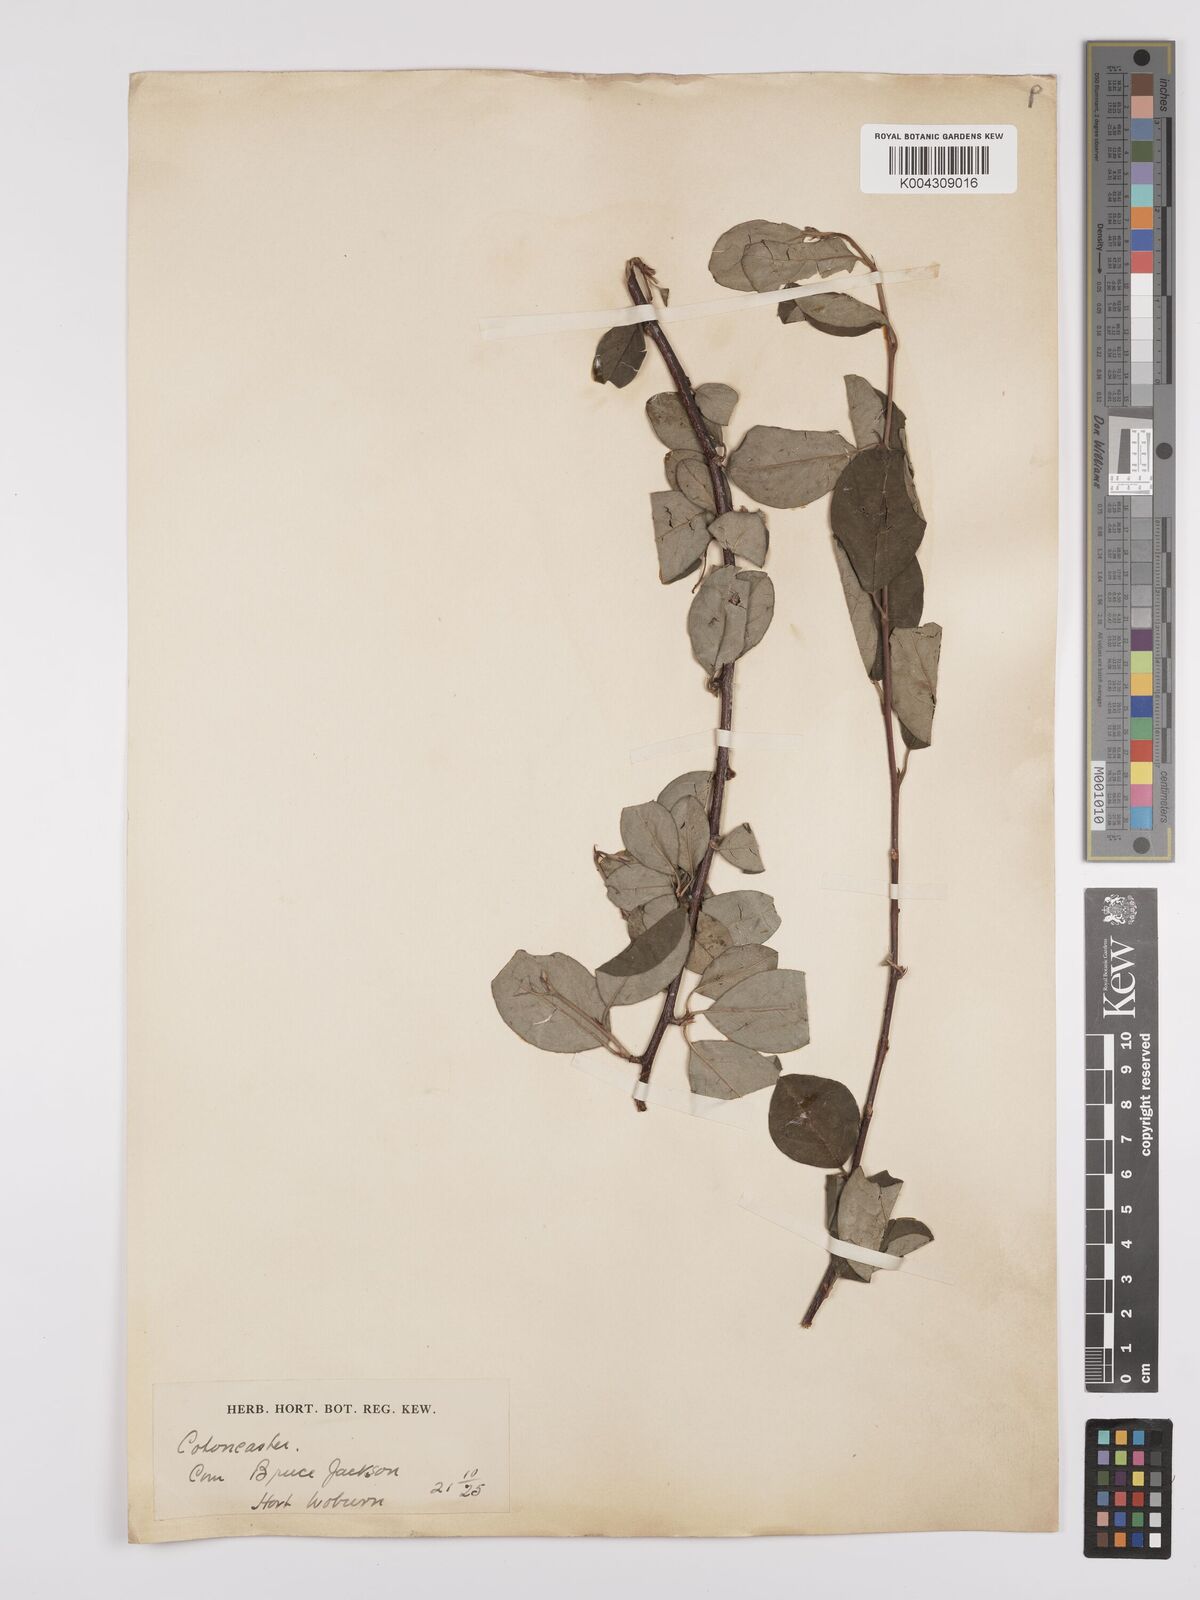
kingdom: Plantae
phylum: Tracheophyta
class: Magnoliopsida
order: Rosales
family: Rosaceae
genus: Cotoneaster
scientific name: Cotoneaster
